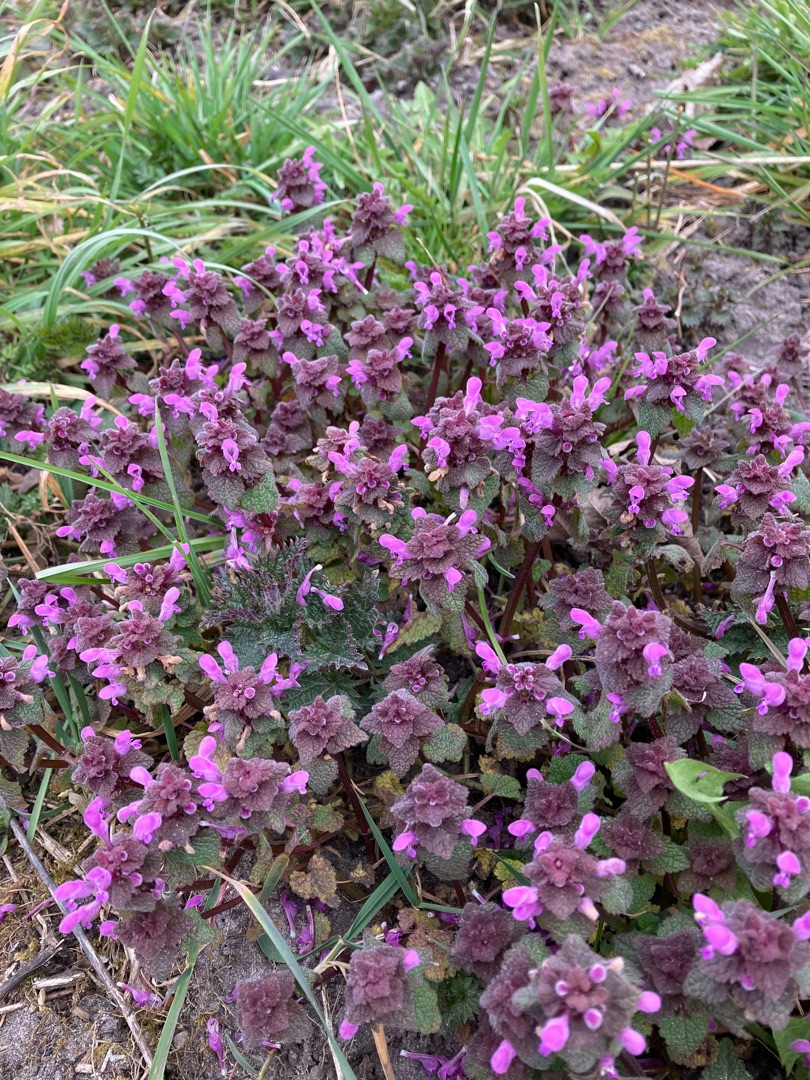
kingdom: Plantae
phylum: Tracheophyta
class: Magnoliopsida
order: Lamiales
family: Lamiaceae
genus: Lamium
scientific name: Lamium purpureum
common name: Rød tvetand
